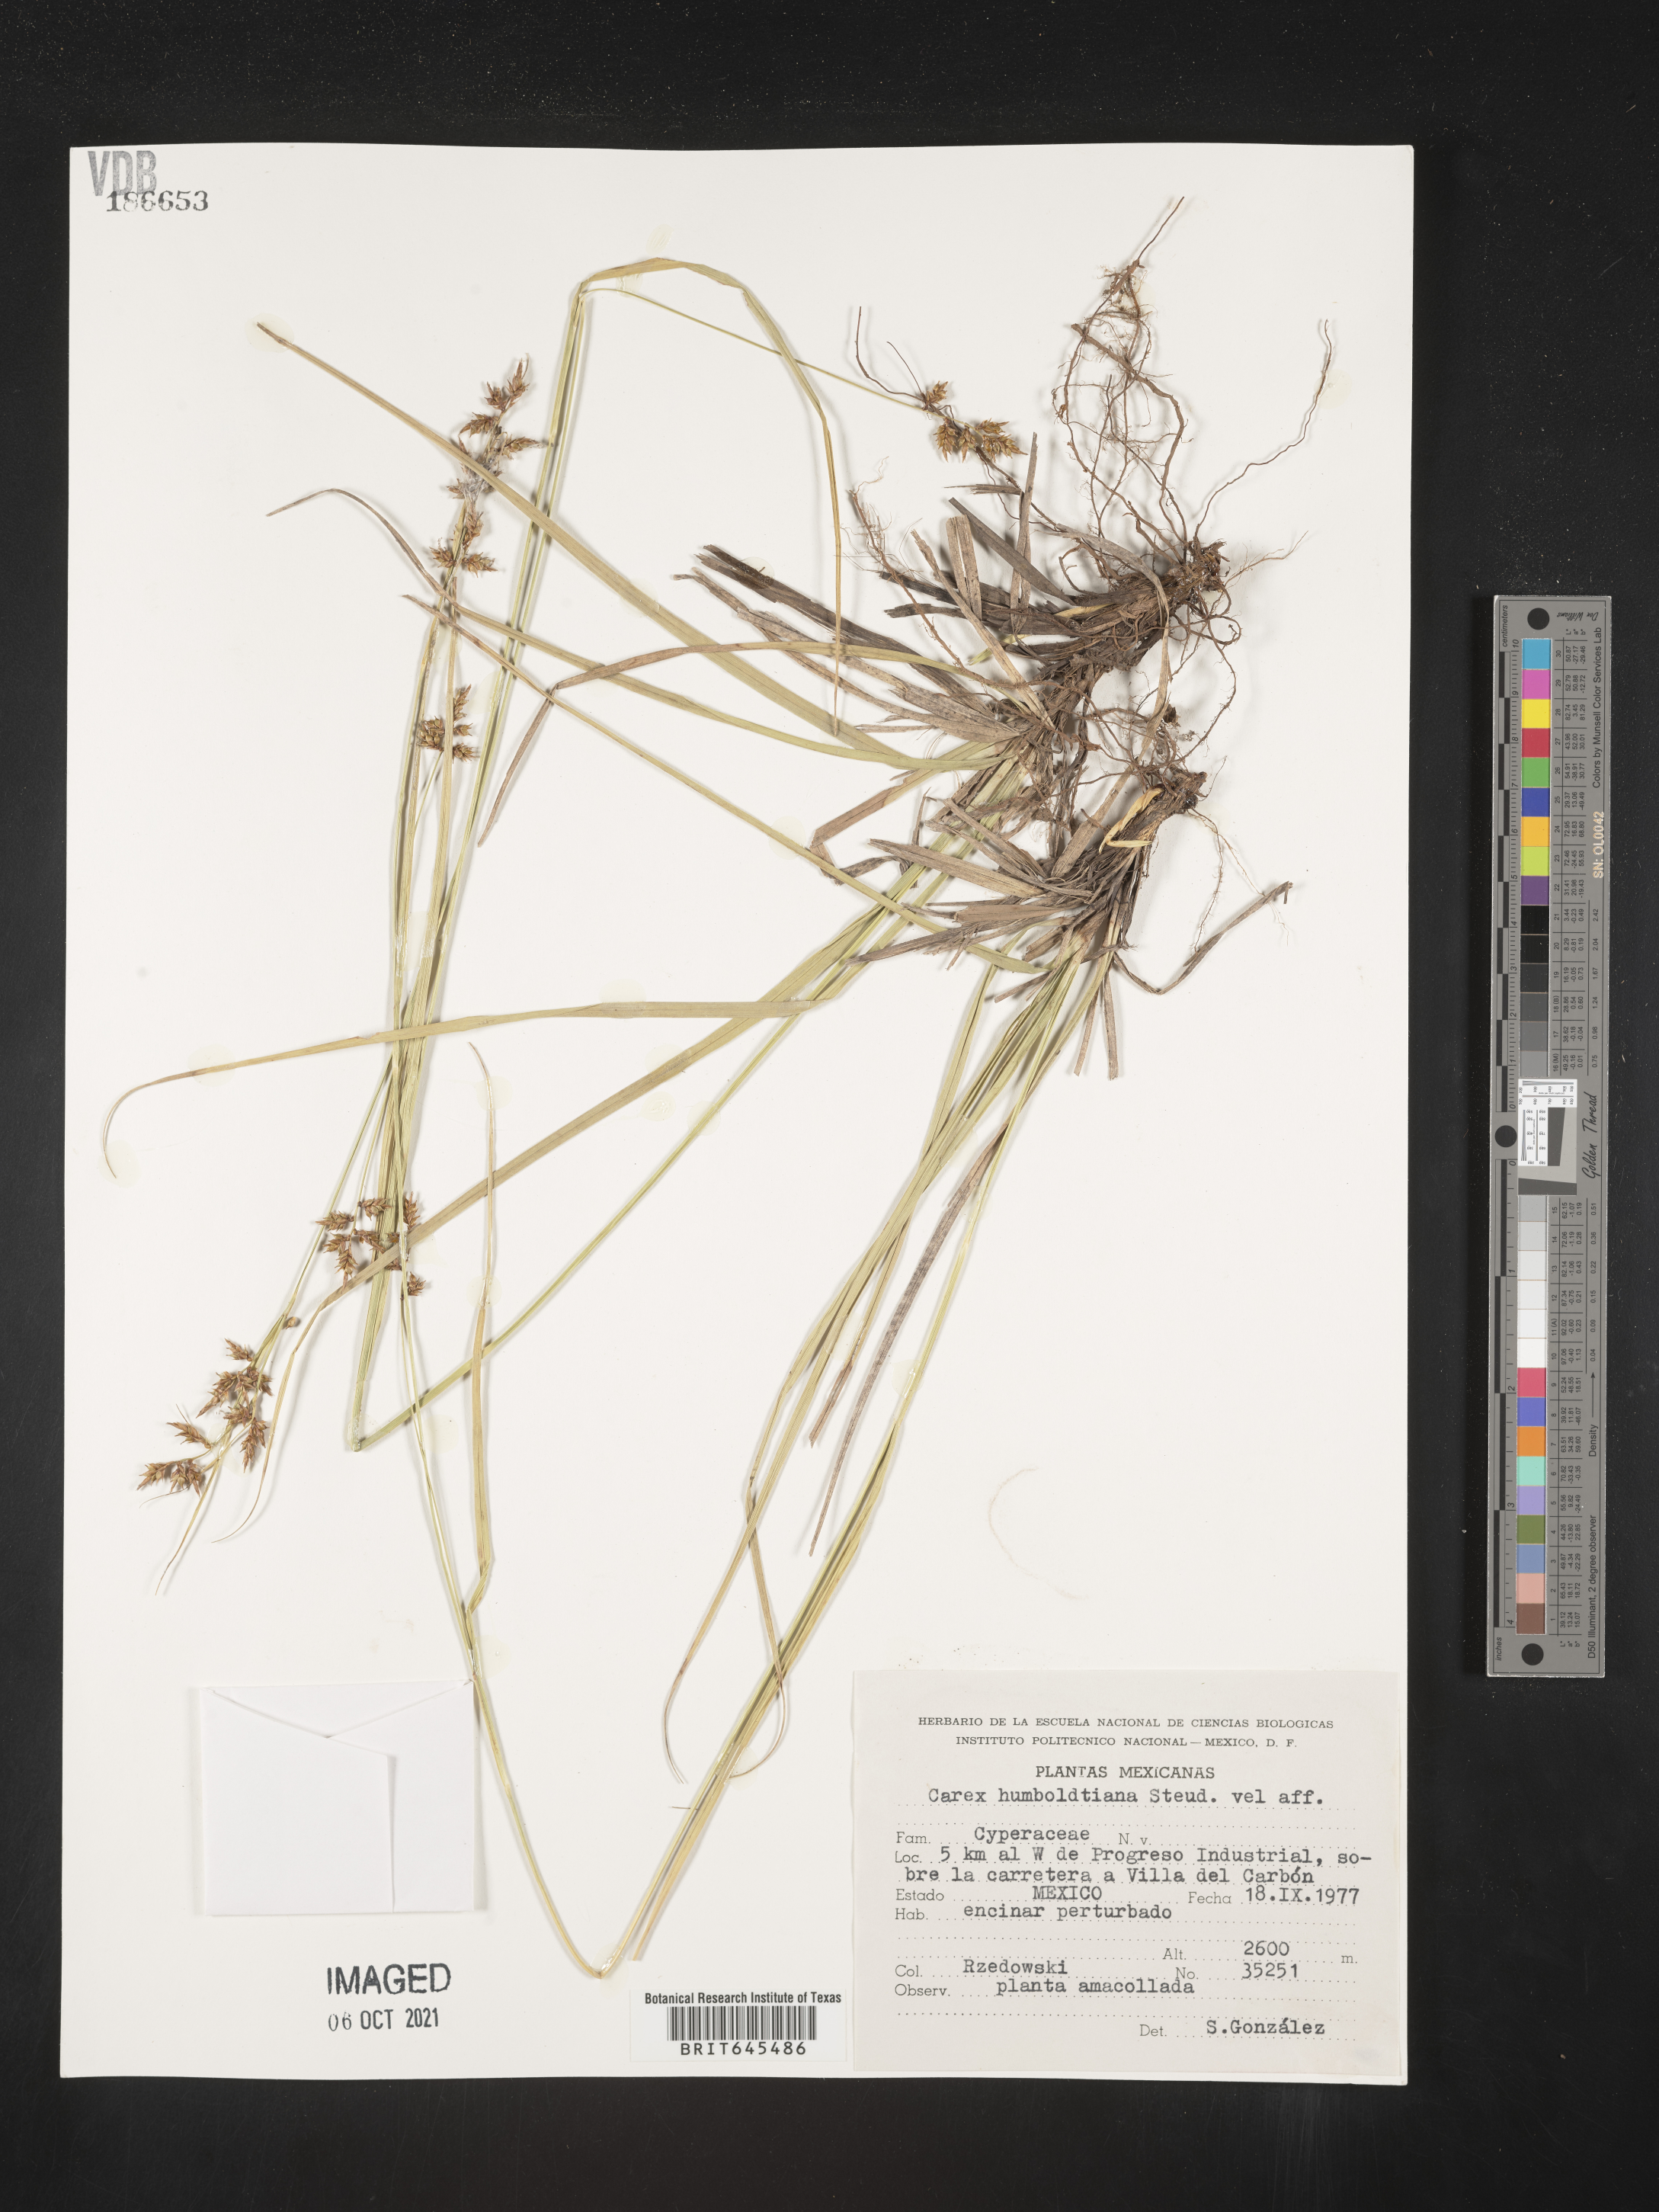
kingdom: Plantae
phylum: Tracheophyta
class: Liliopsida
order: Poales
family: Cyperaceae
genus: Carex
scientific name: Carex
